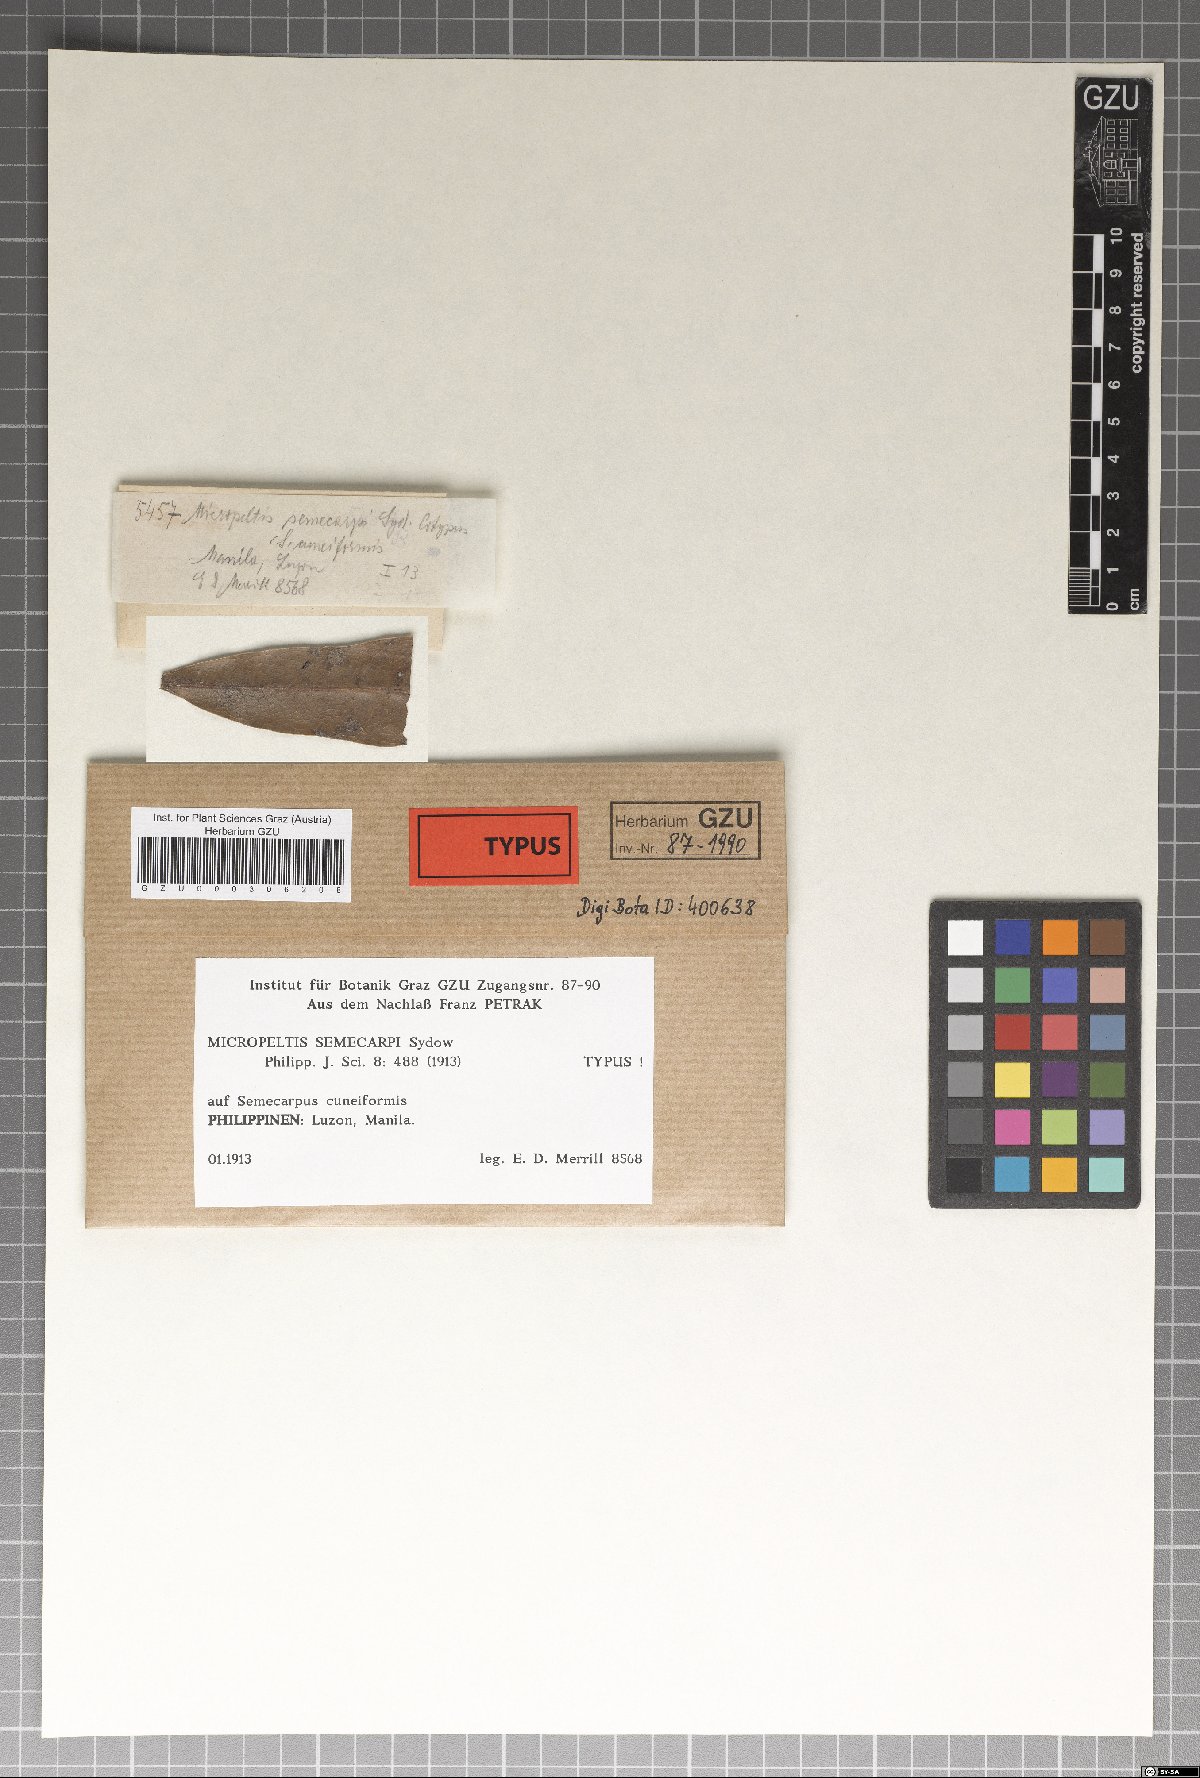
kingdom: Fungi
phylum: Ascomycota
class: Dothideomycetes
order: Microthyriales
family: Micropeltidaceae
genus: Dictyothyriella
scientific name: Dictyothyriella semecarpi
